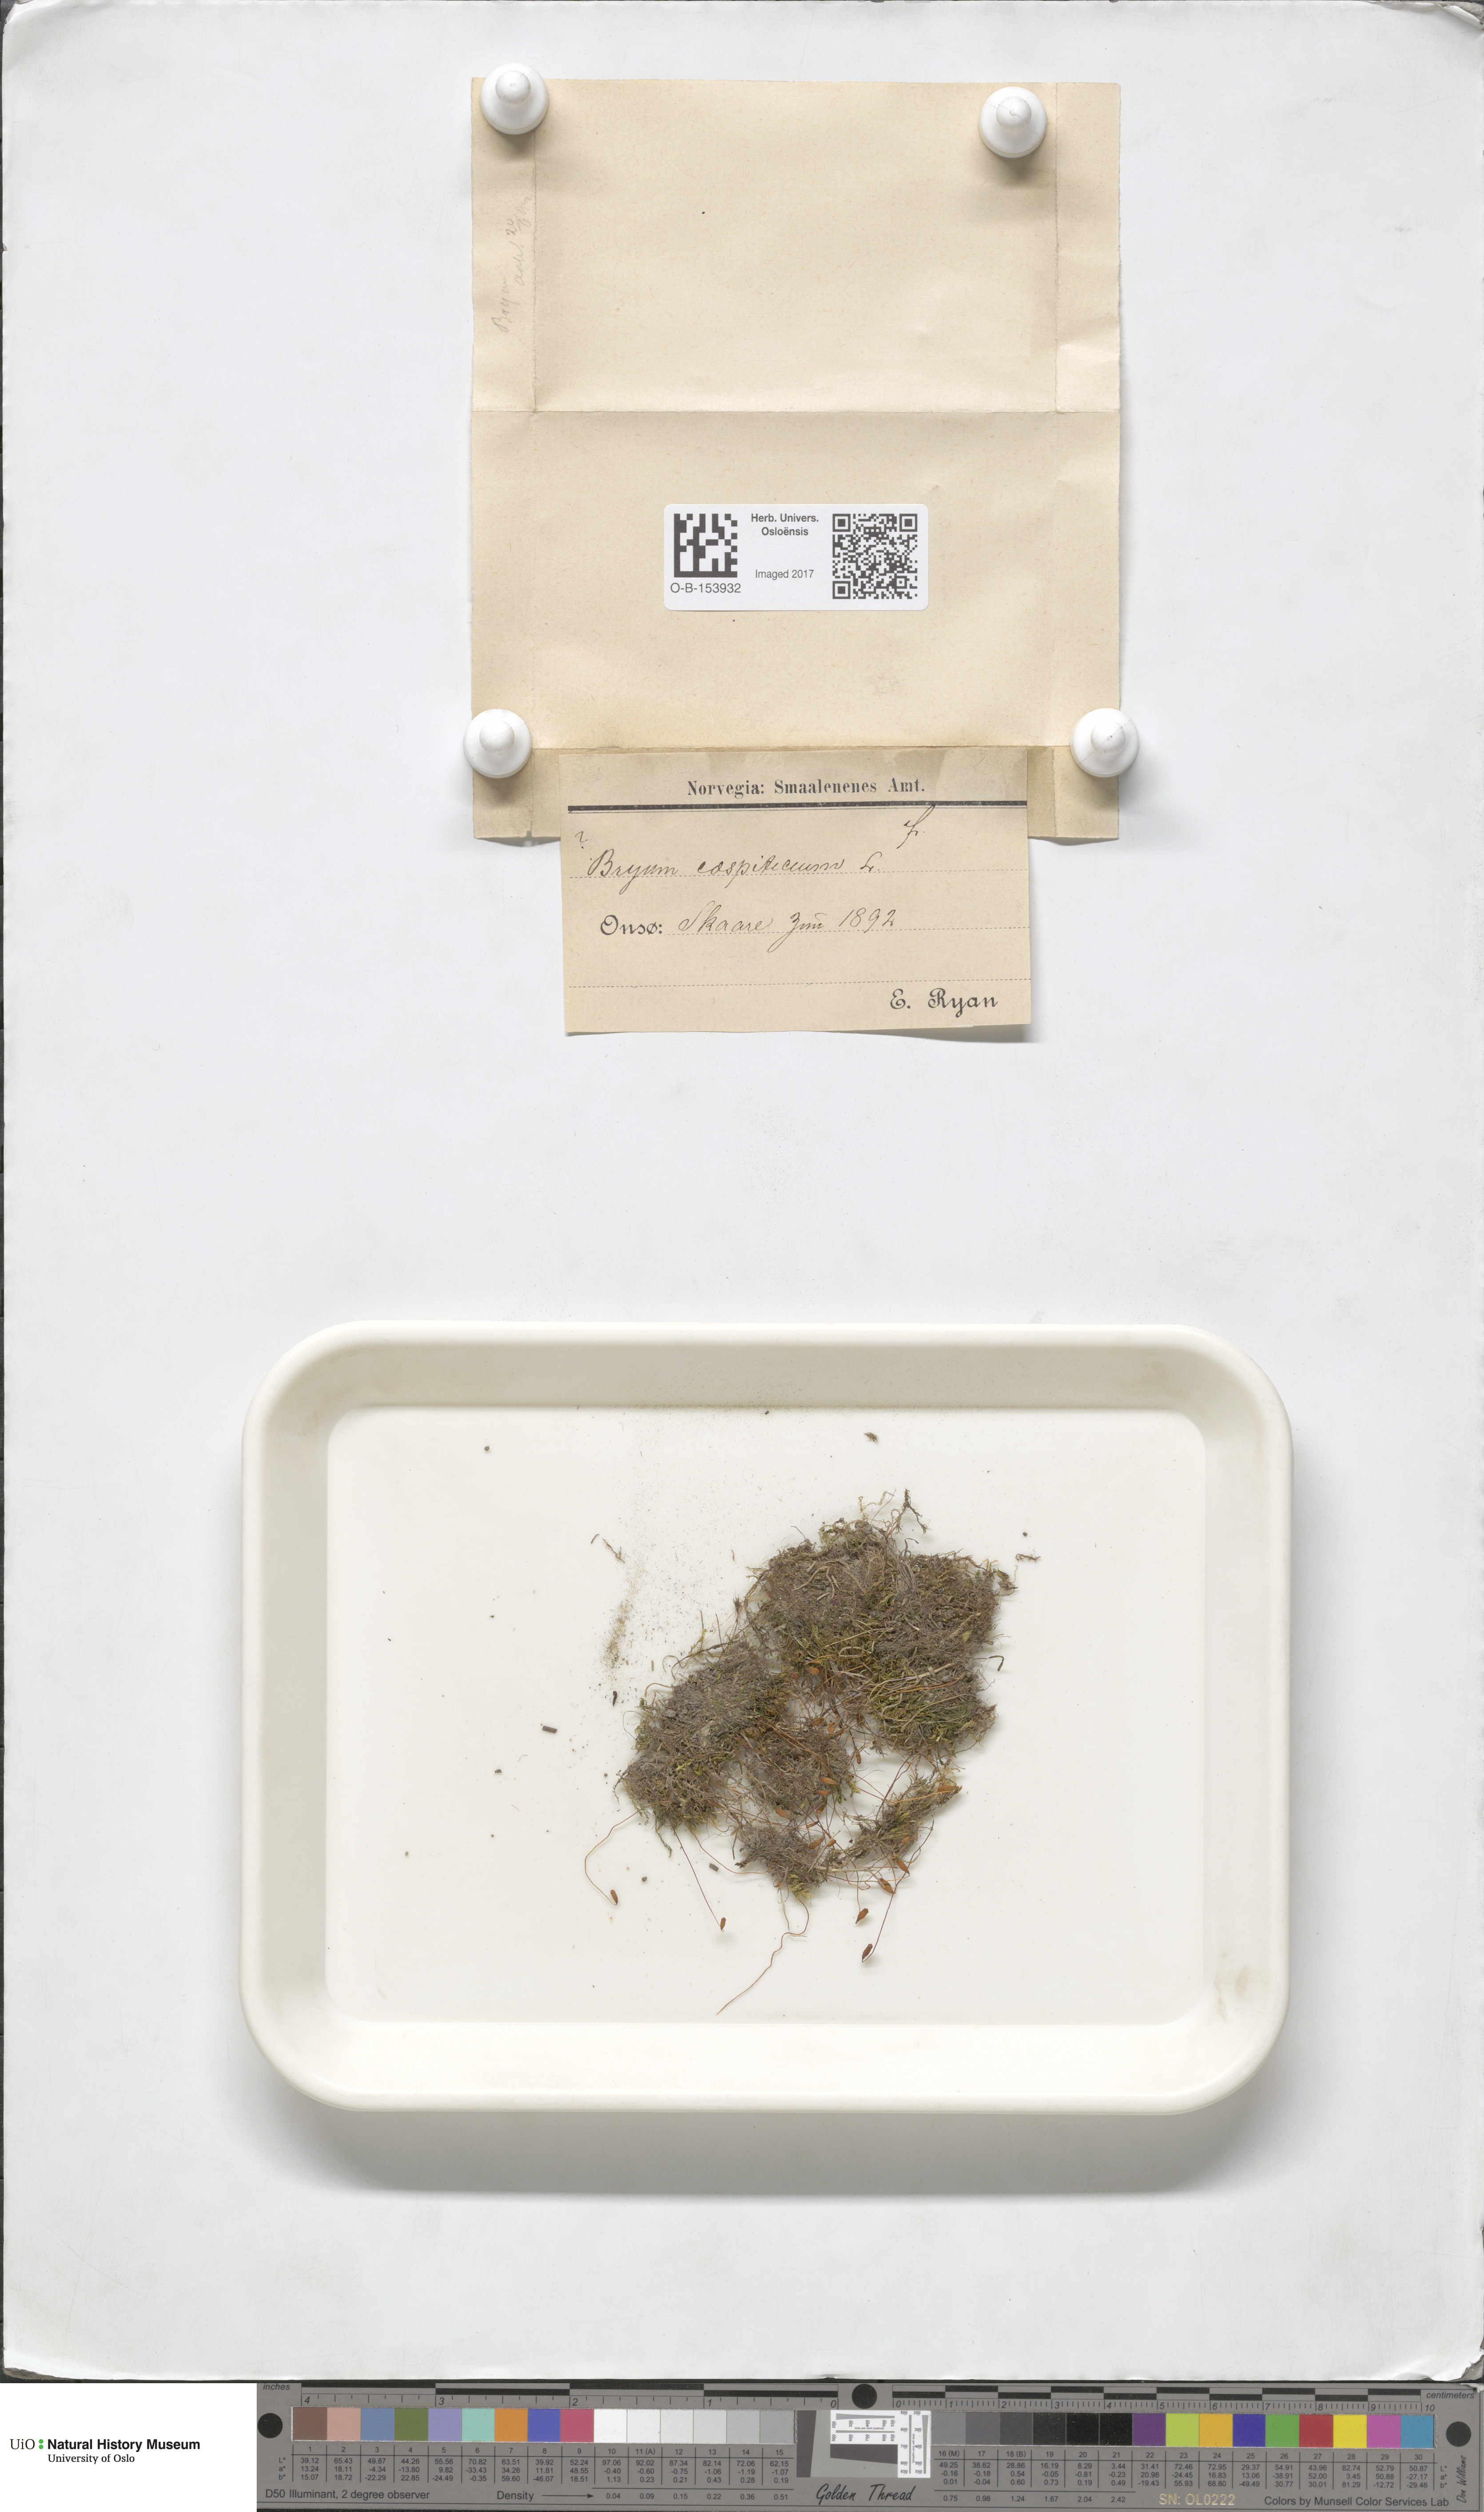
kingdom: Plantae
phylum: Bryophyta
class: Bryopsida
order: Bryales
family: Bryaceae
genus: Gemmabryum
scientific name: Gemmabryum caespiticium
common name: Handbell moss
